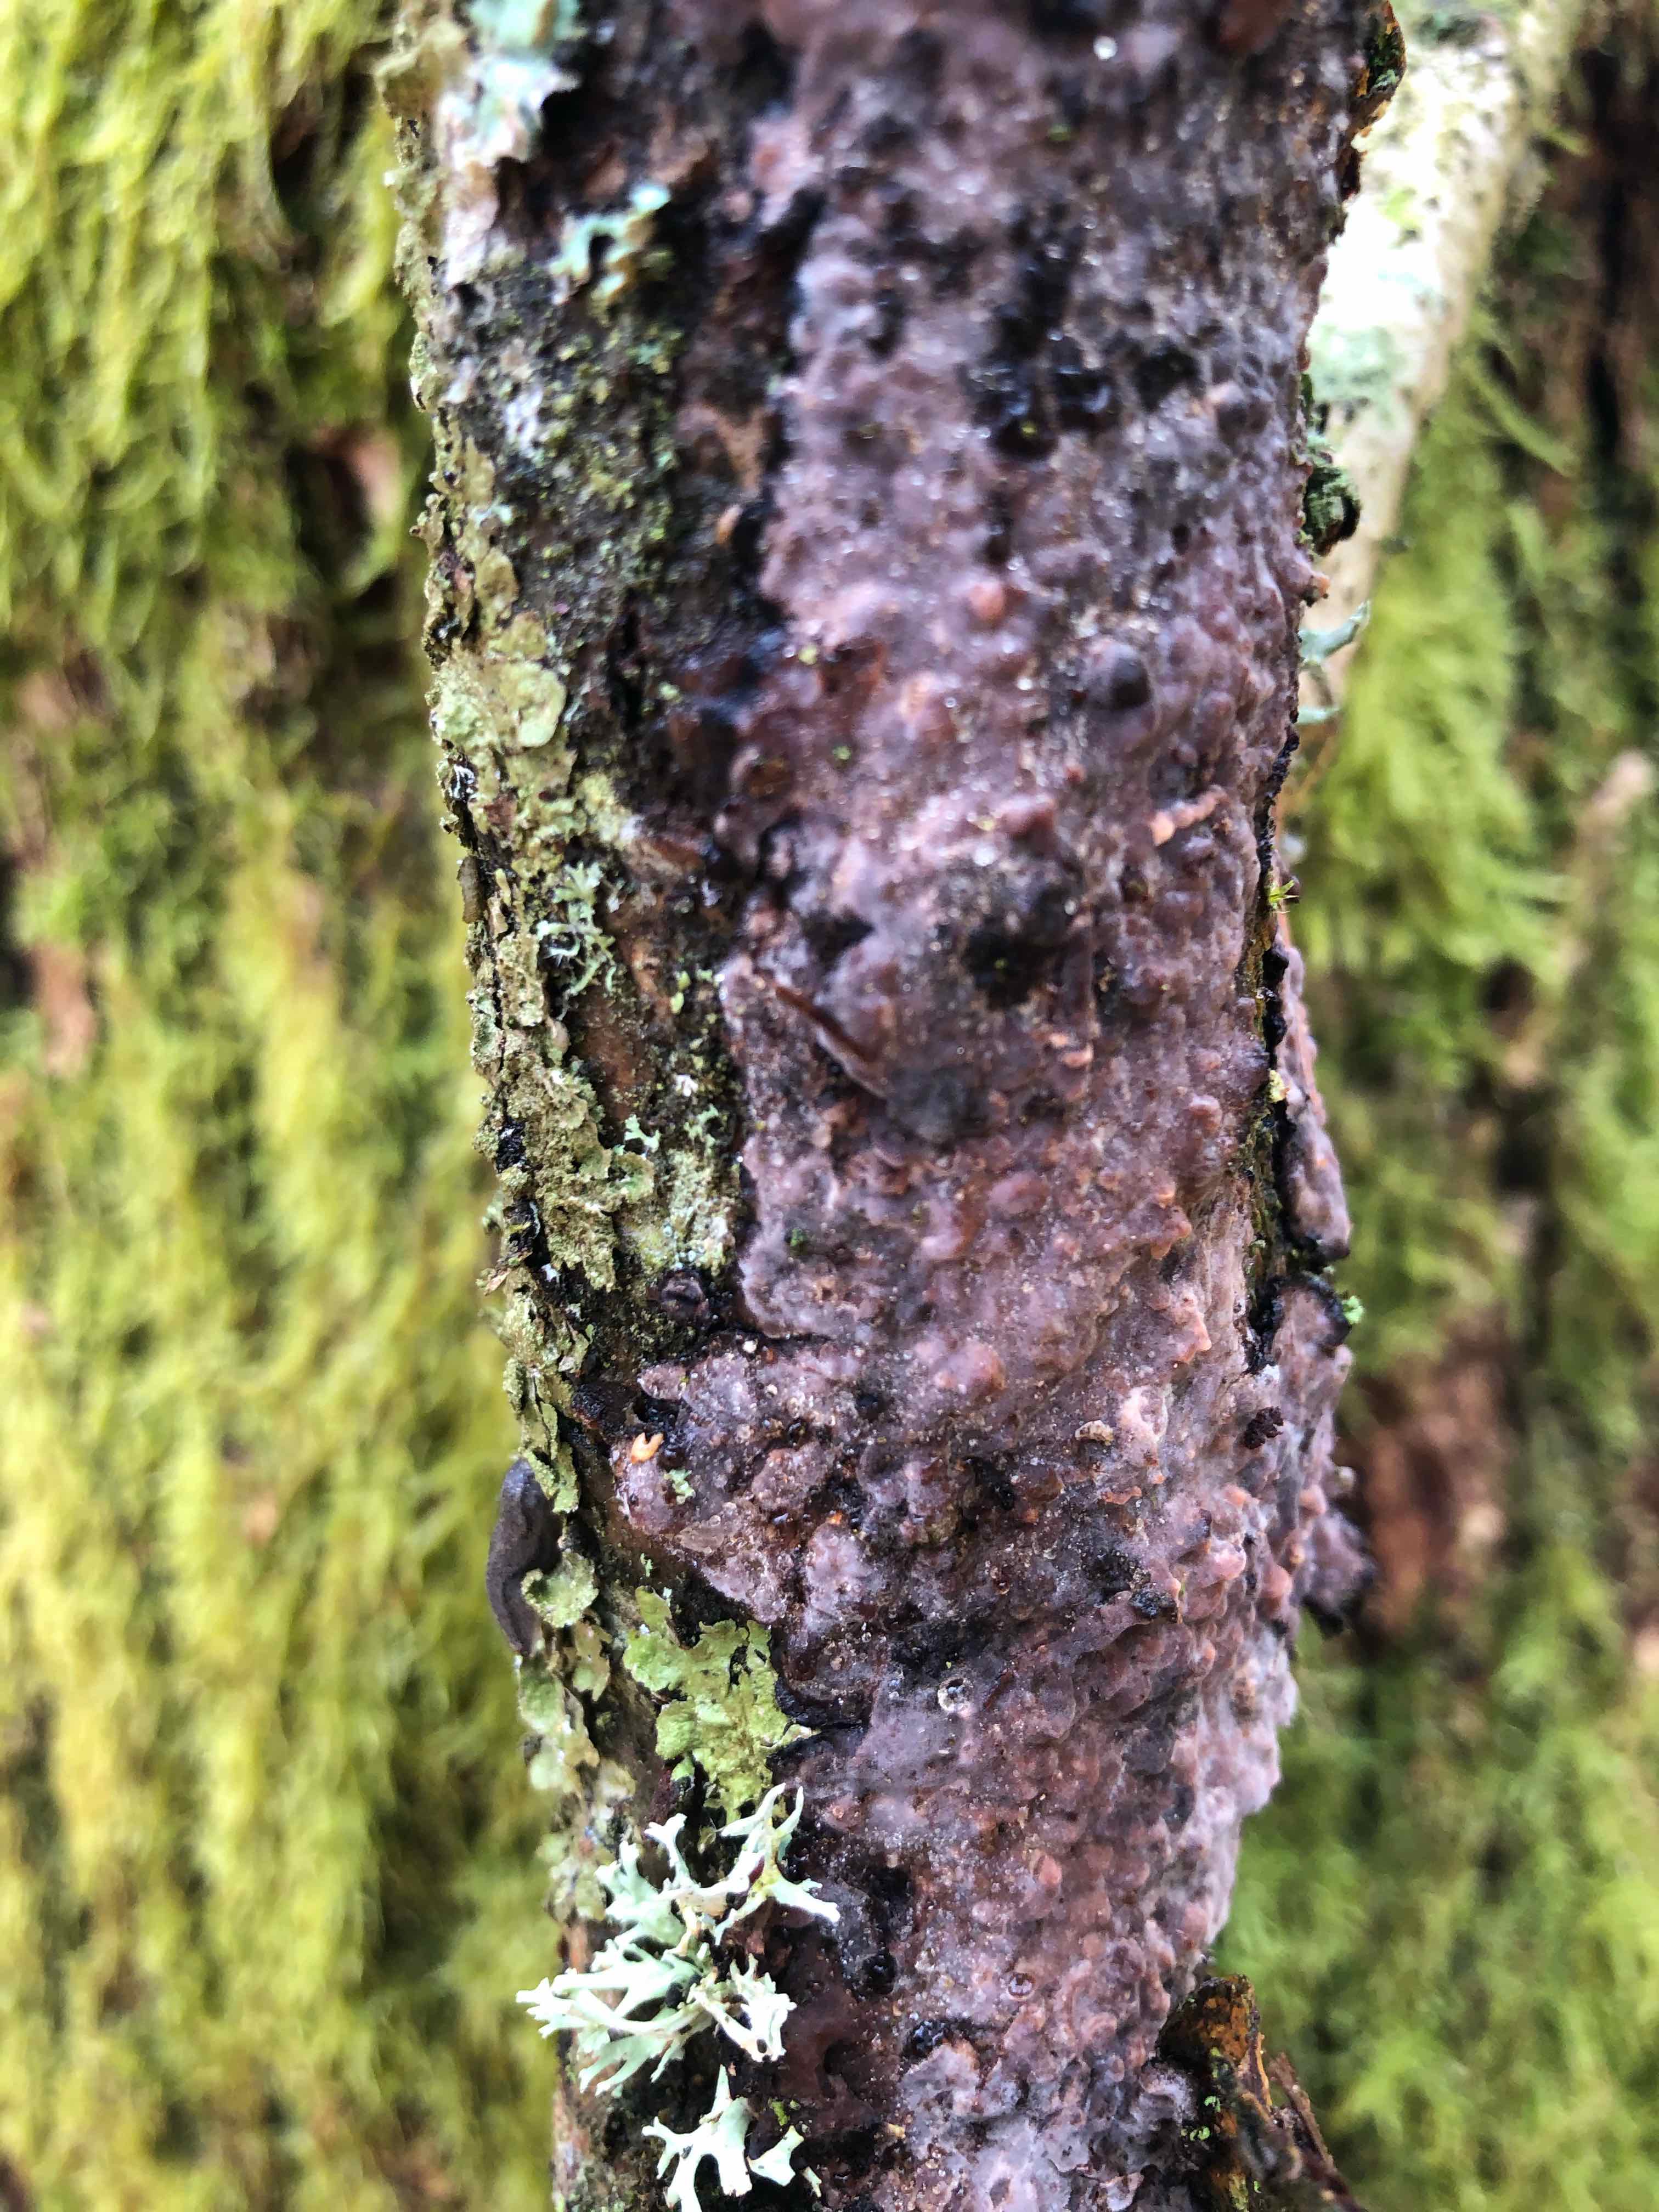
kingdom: Fungi
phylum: Basidiomycota
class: Agaricomycetes
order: Russulales
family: Peniophoraceae
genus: Peniophora
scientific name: Peniophora quercina
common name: ege-voksskind
